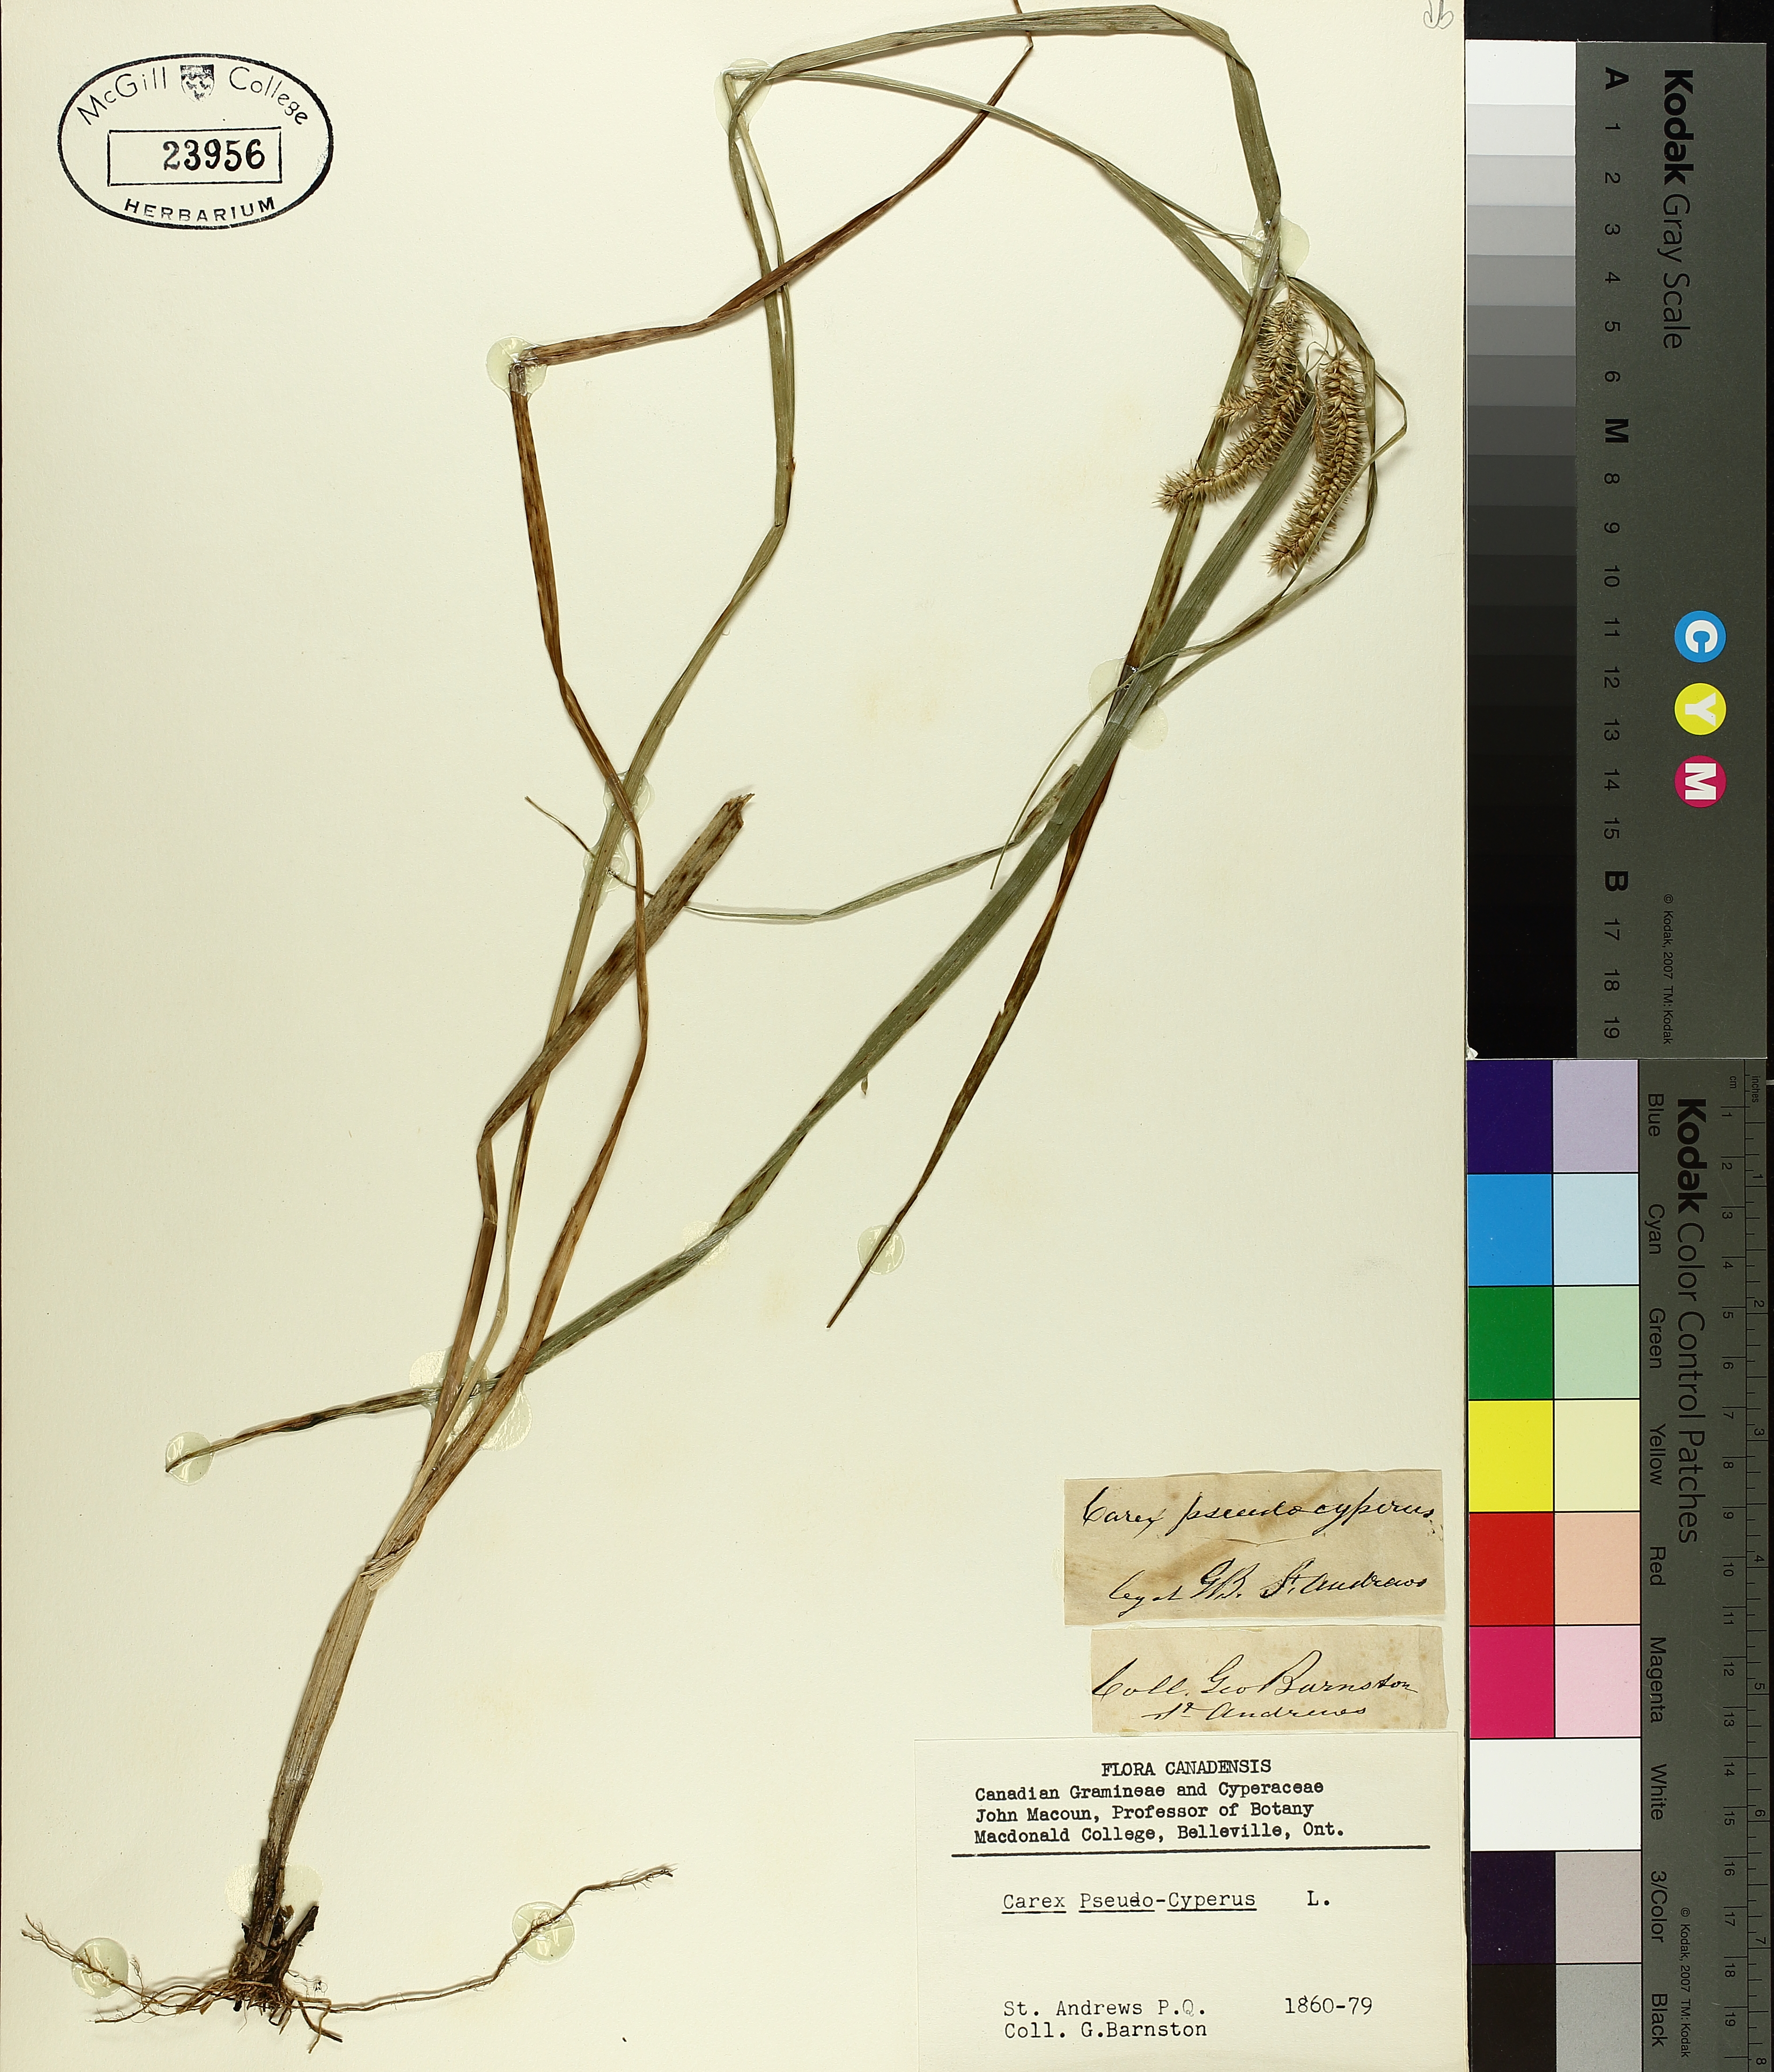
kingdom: Plantae
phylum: Tracheophyta
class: Liliopsida
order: Poales
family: Cyperaceae
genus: Carex
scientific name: Carex pseudocyperus
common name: Cyperus sedge
